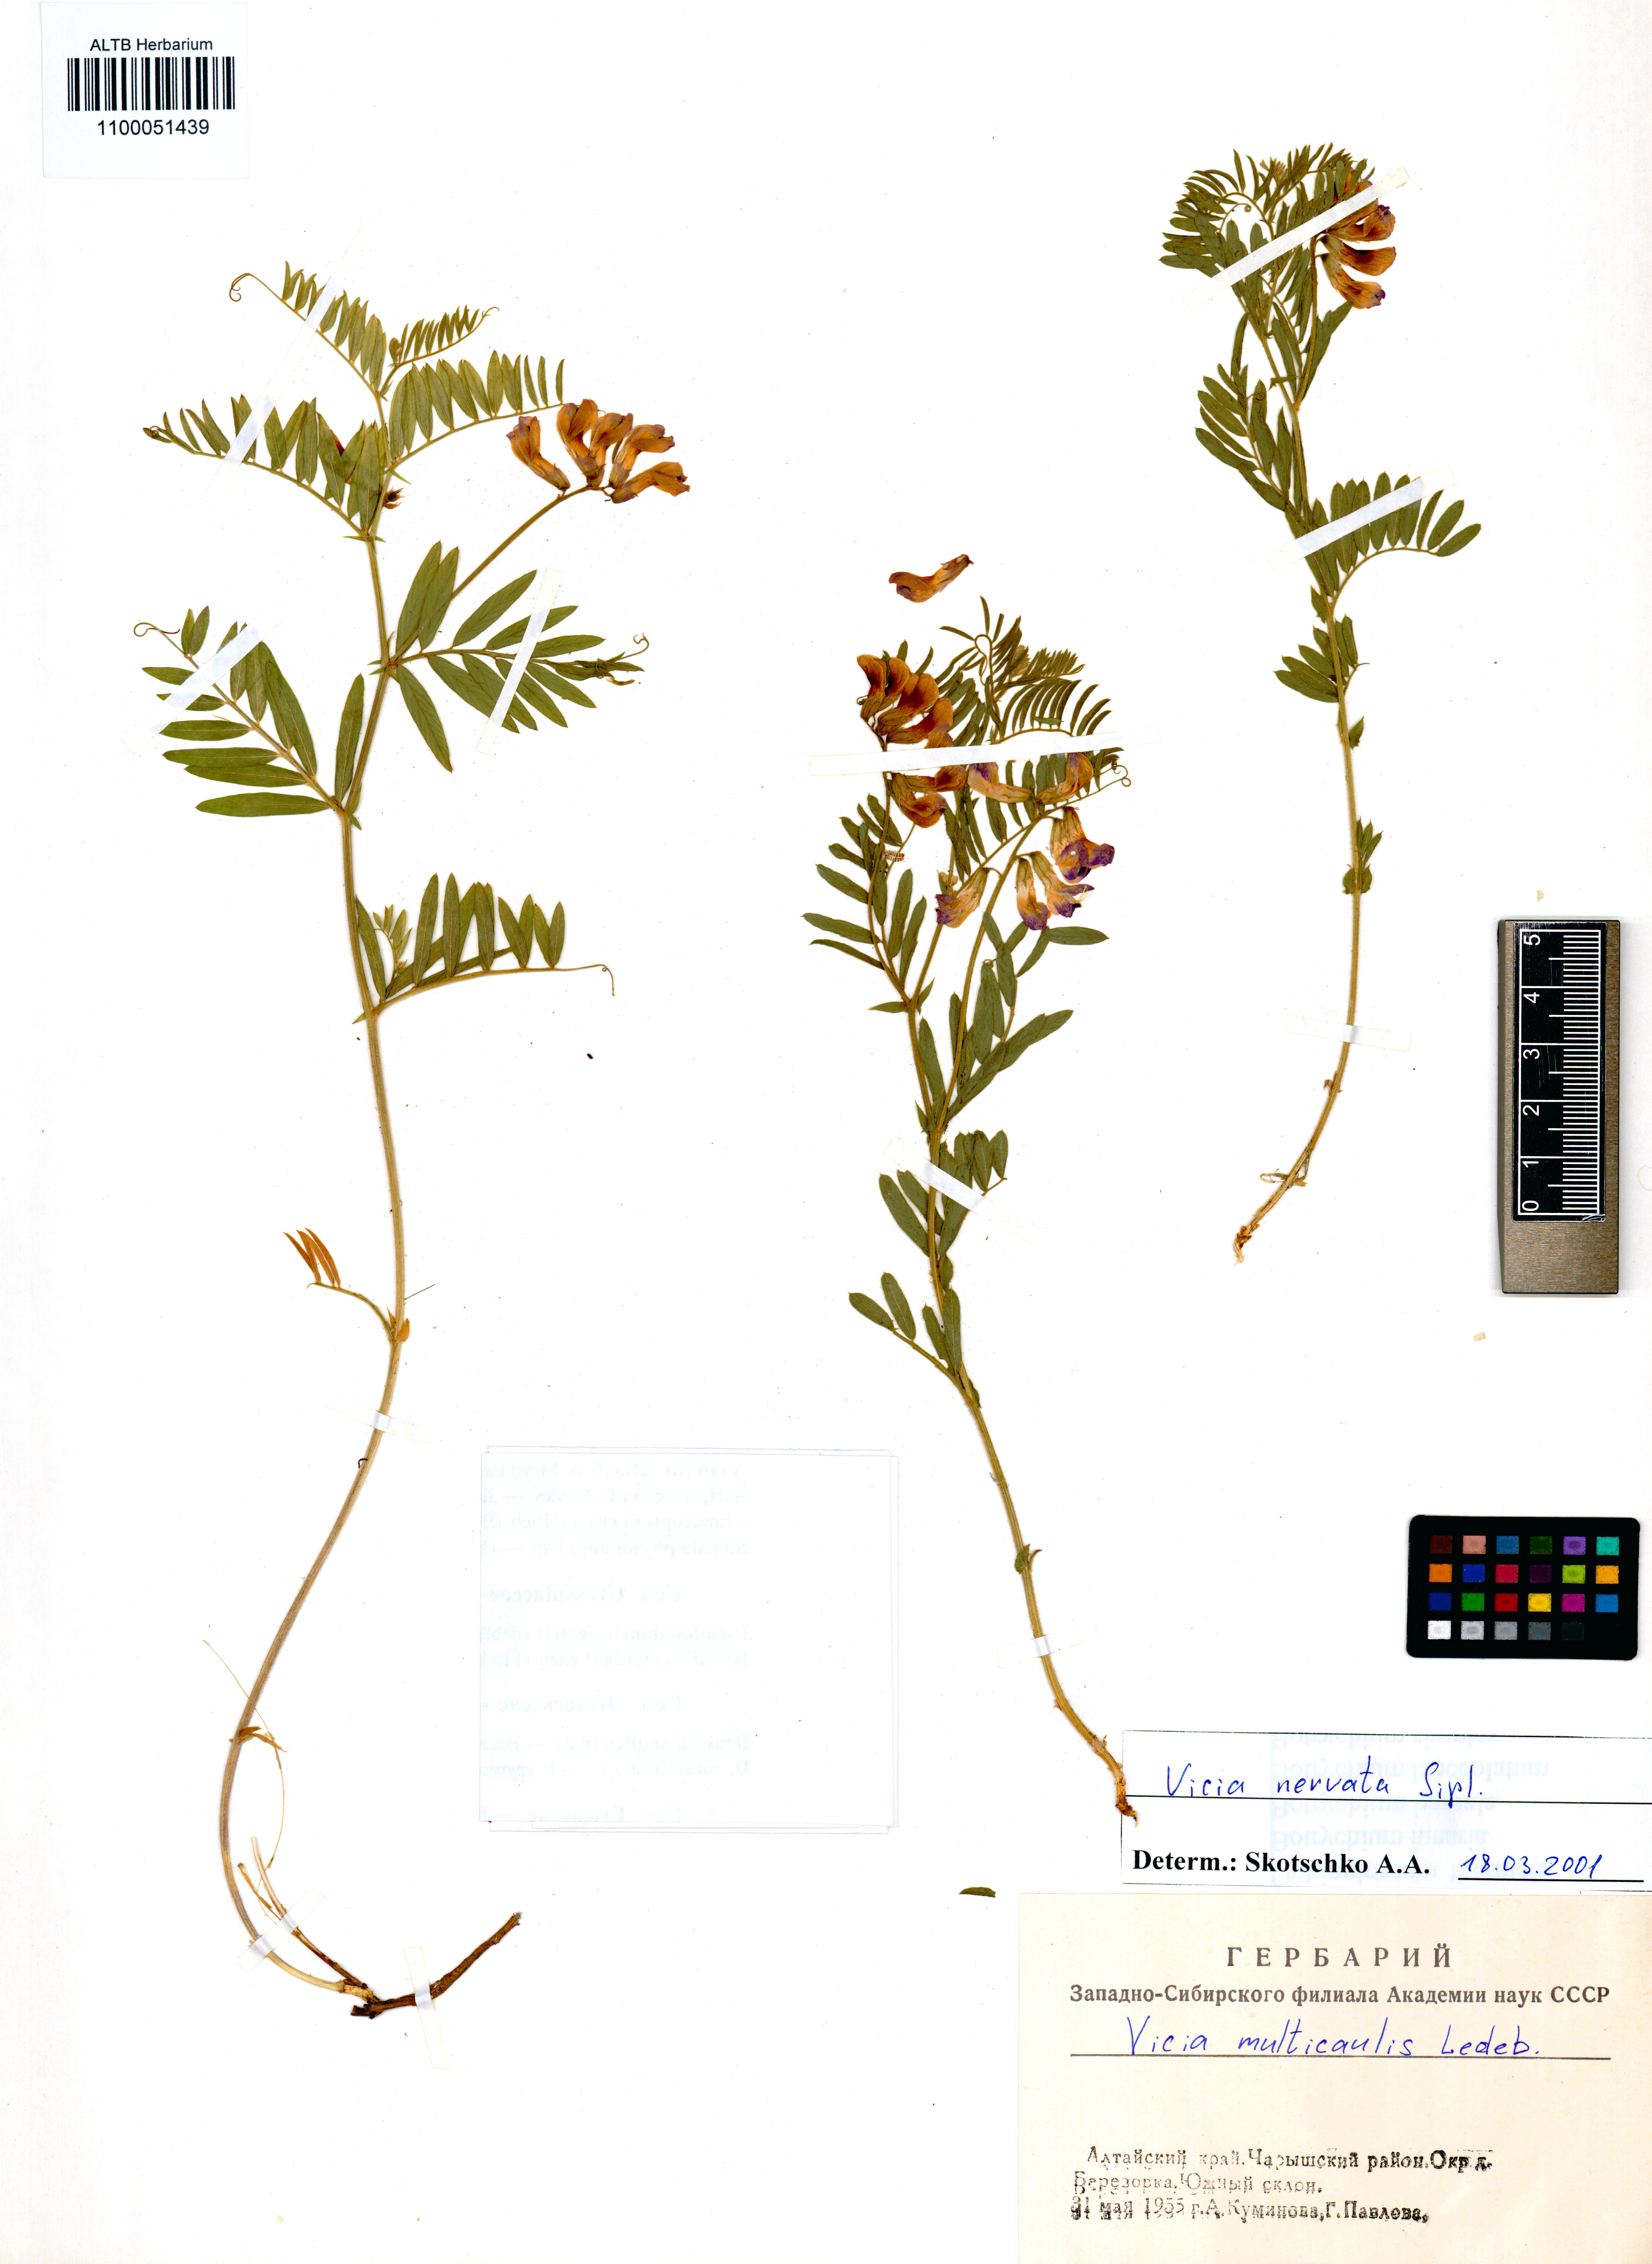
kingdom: Plantae
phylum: Tracheophyta
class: Magnoliopsida
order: Fabales
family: Fabaceae
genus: Vicia
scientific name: Vicia multicaulis
